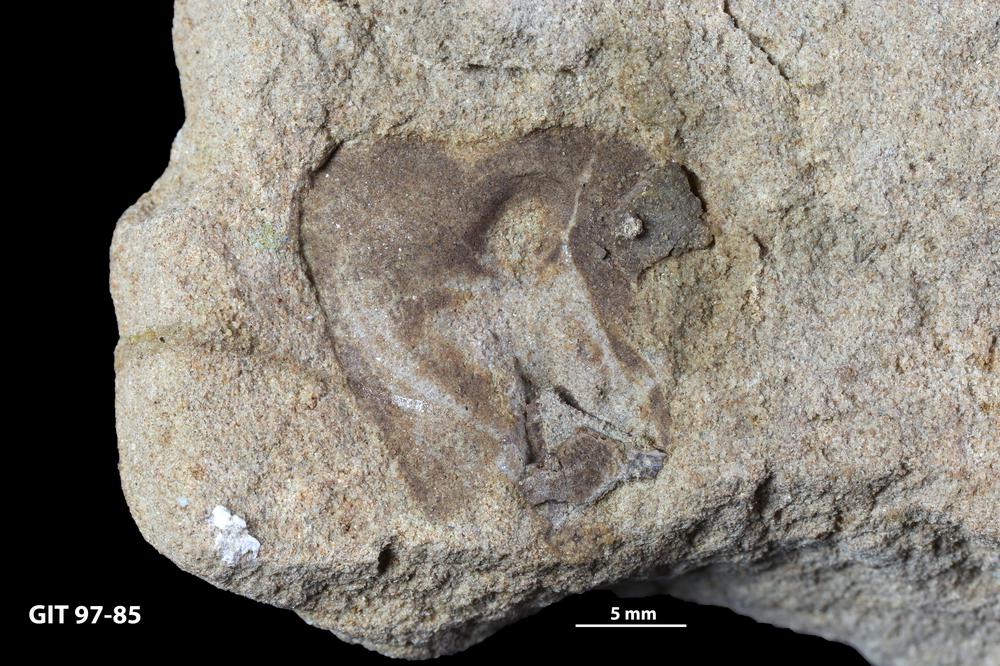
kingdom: Animalia
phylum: Chordata
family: Holonematidae
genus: Holonema
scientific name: Holonema
